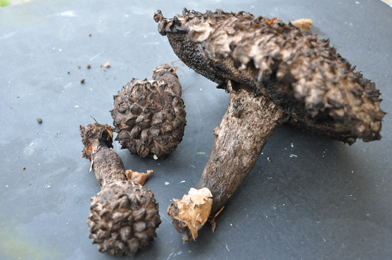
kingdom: Fungi
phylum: Basidiomycota
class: Agaricomycetes
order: Boletales
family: Boletaceae
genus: Strobilomyces
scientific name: Strobilomyces strobilaceus
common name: koglerørhat
